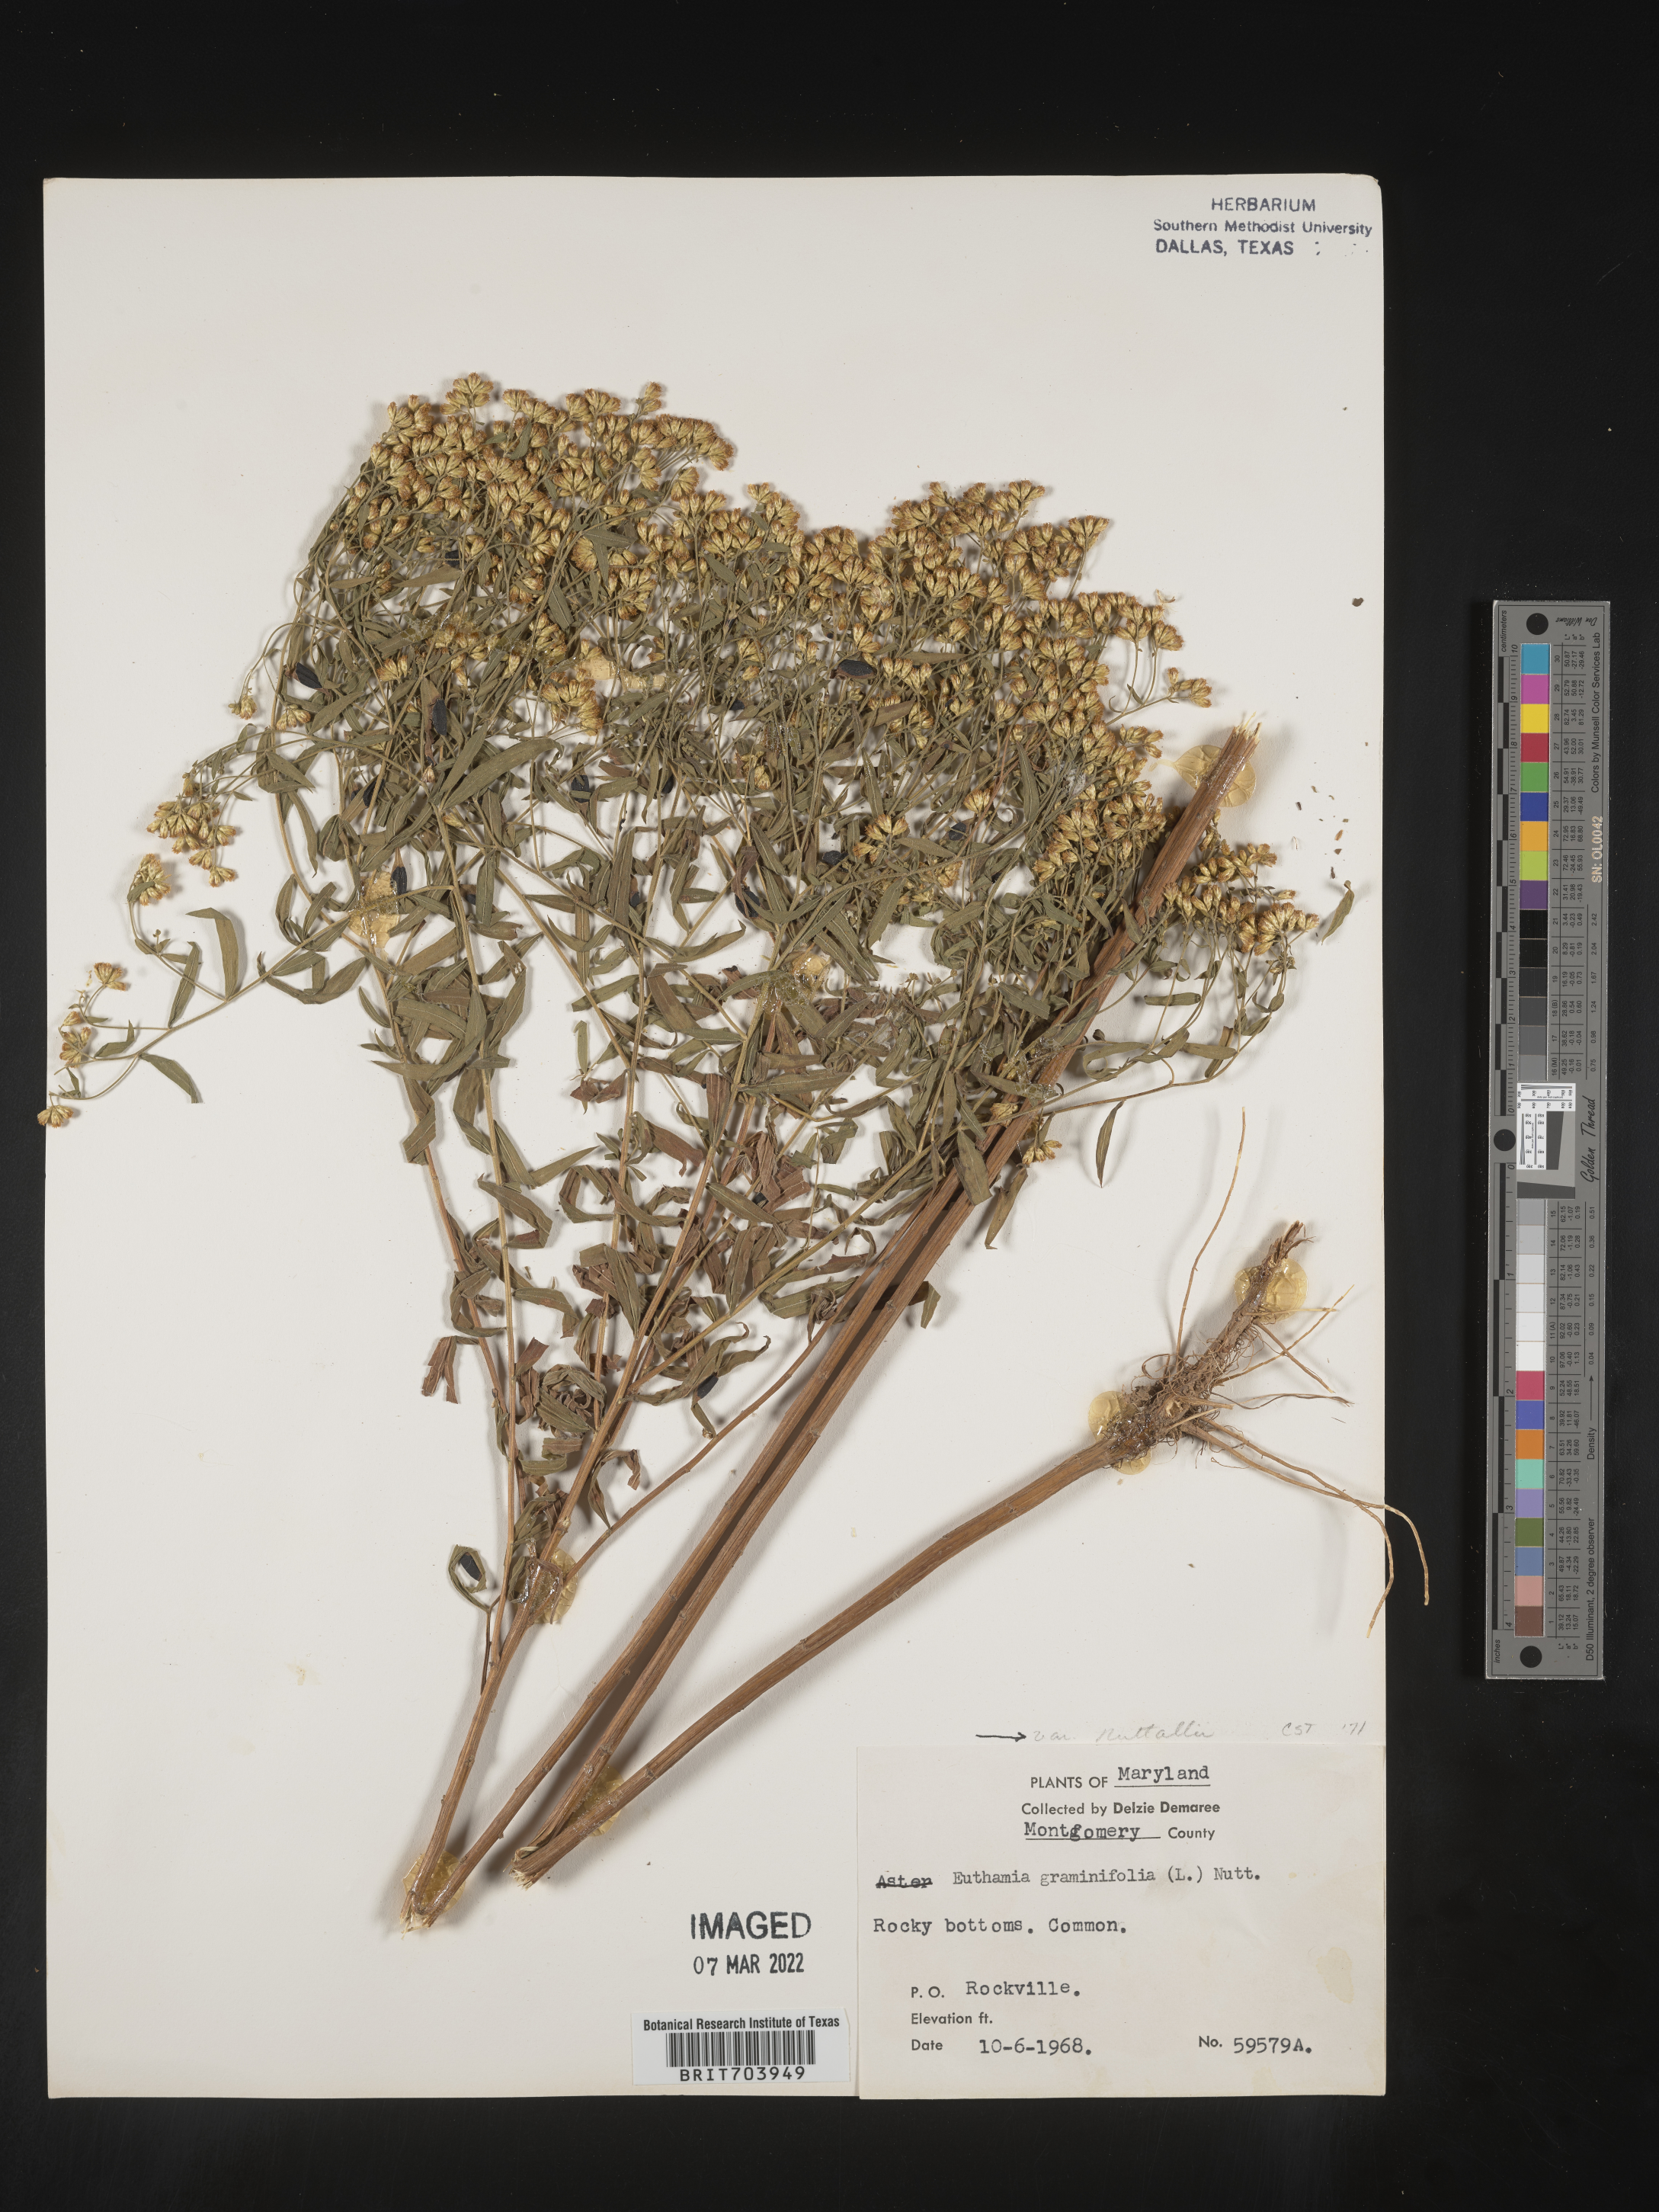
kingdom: Plantae
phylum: Tracheophyta
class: Magnoliopsida
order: Asterales
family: Asteraceae
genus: Euthamia
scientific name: Euthamia graminifolia
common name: Common goldentop
